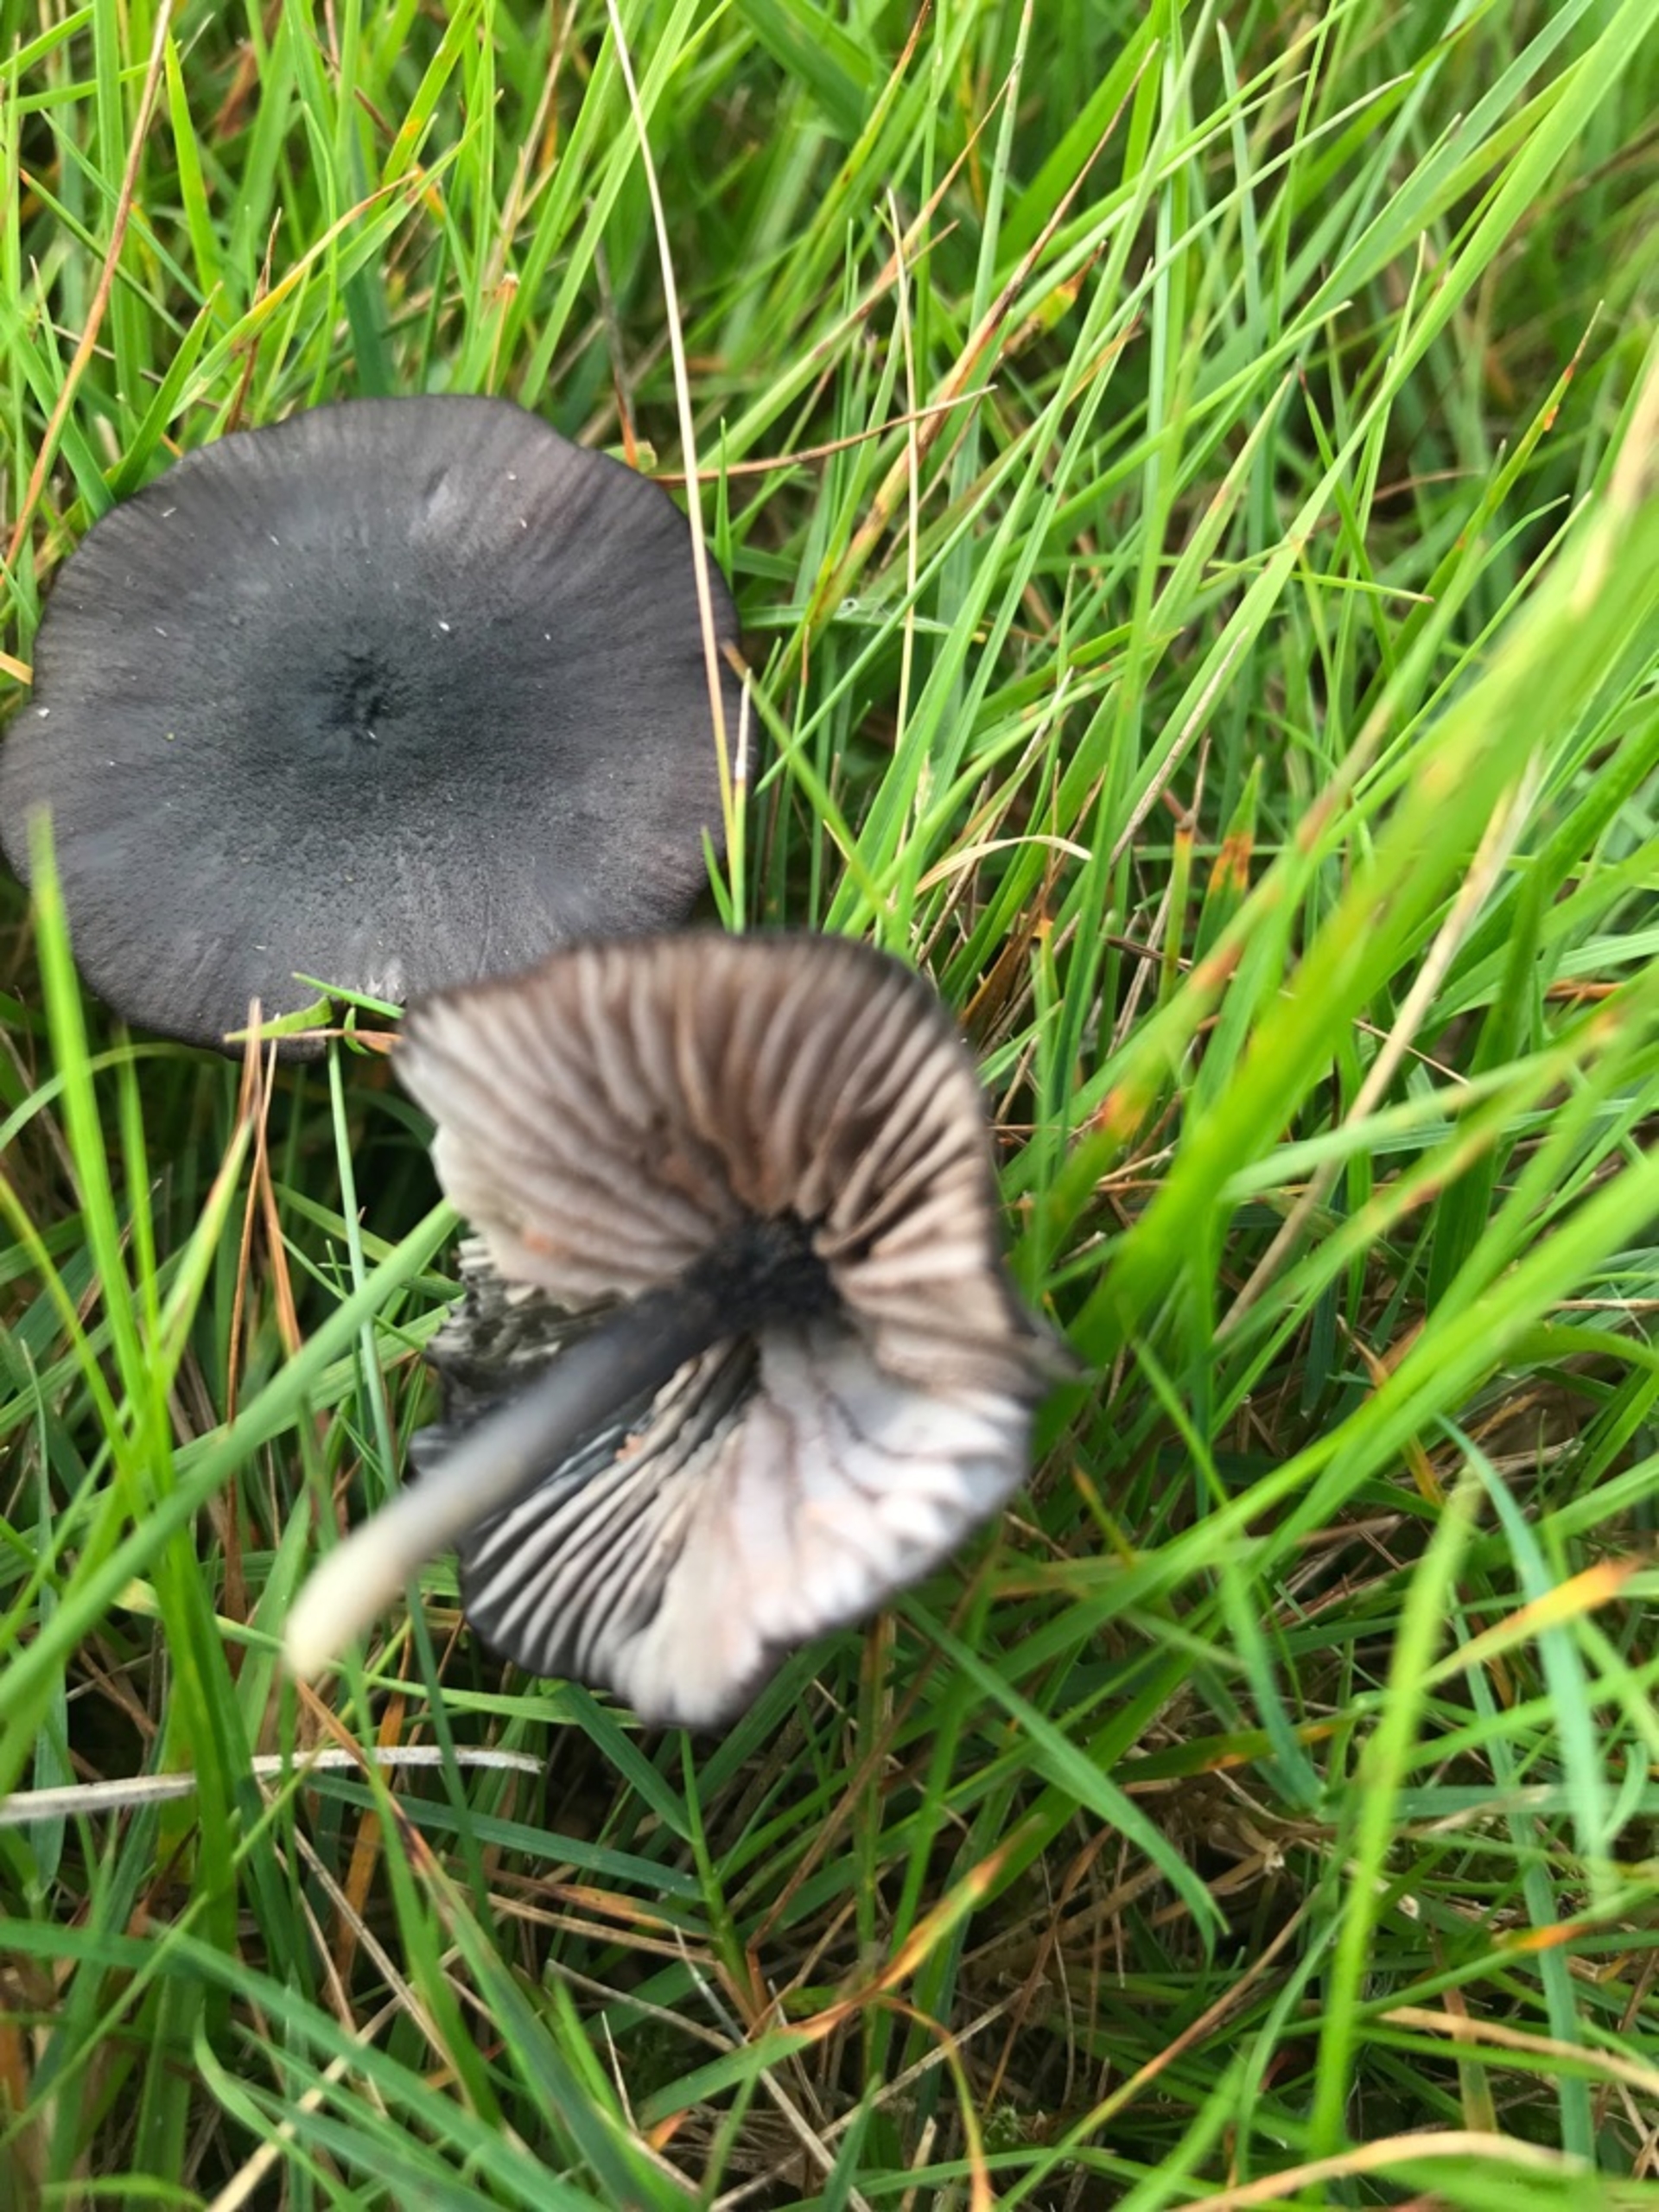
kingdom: Fungi
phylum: Basidiomycota
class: Agaricomycetes
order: Agaricales
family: Entolomataceae
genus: Entoloma
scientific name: Entoloma
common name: Rødblad
